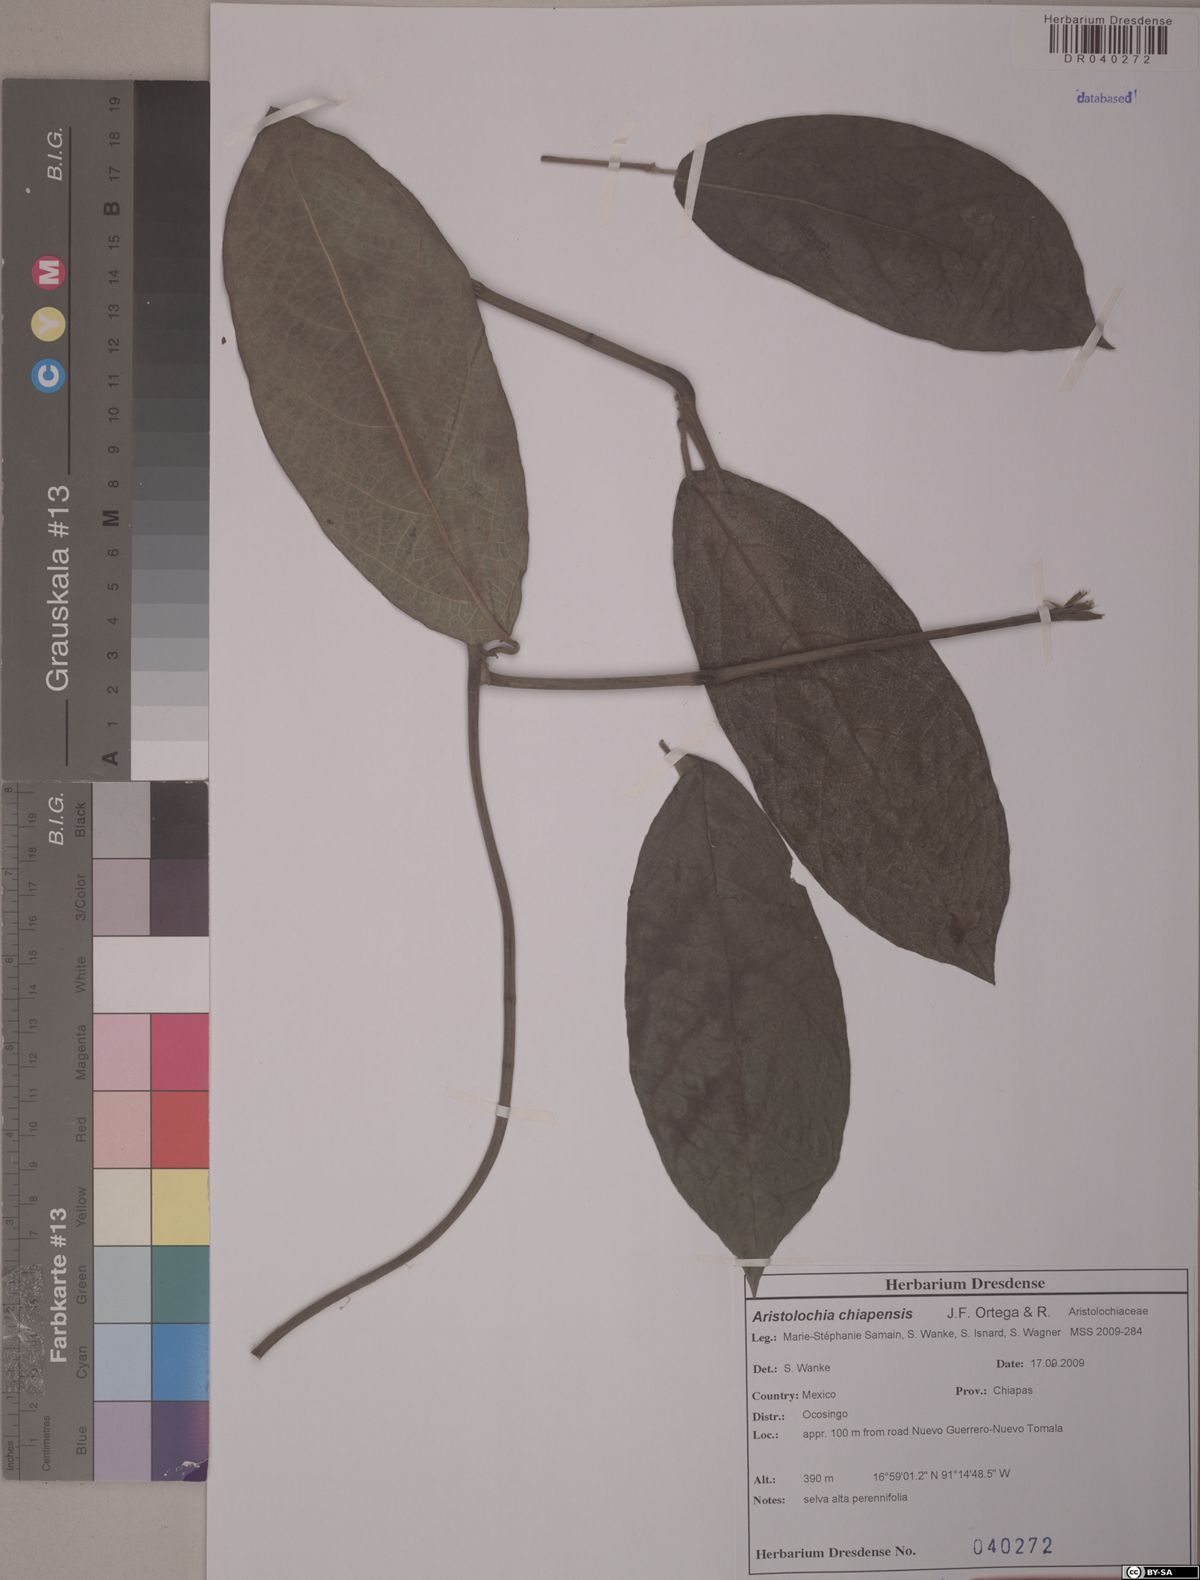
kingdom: Plantae
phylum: Tracheophyta
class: Magnoliopsida
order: Piperales
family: Aristolochiaceae
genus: Isotrema
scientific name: Isotrema paracletum
